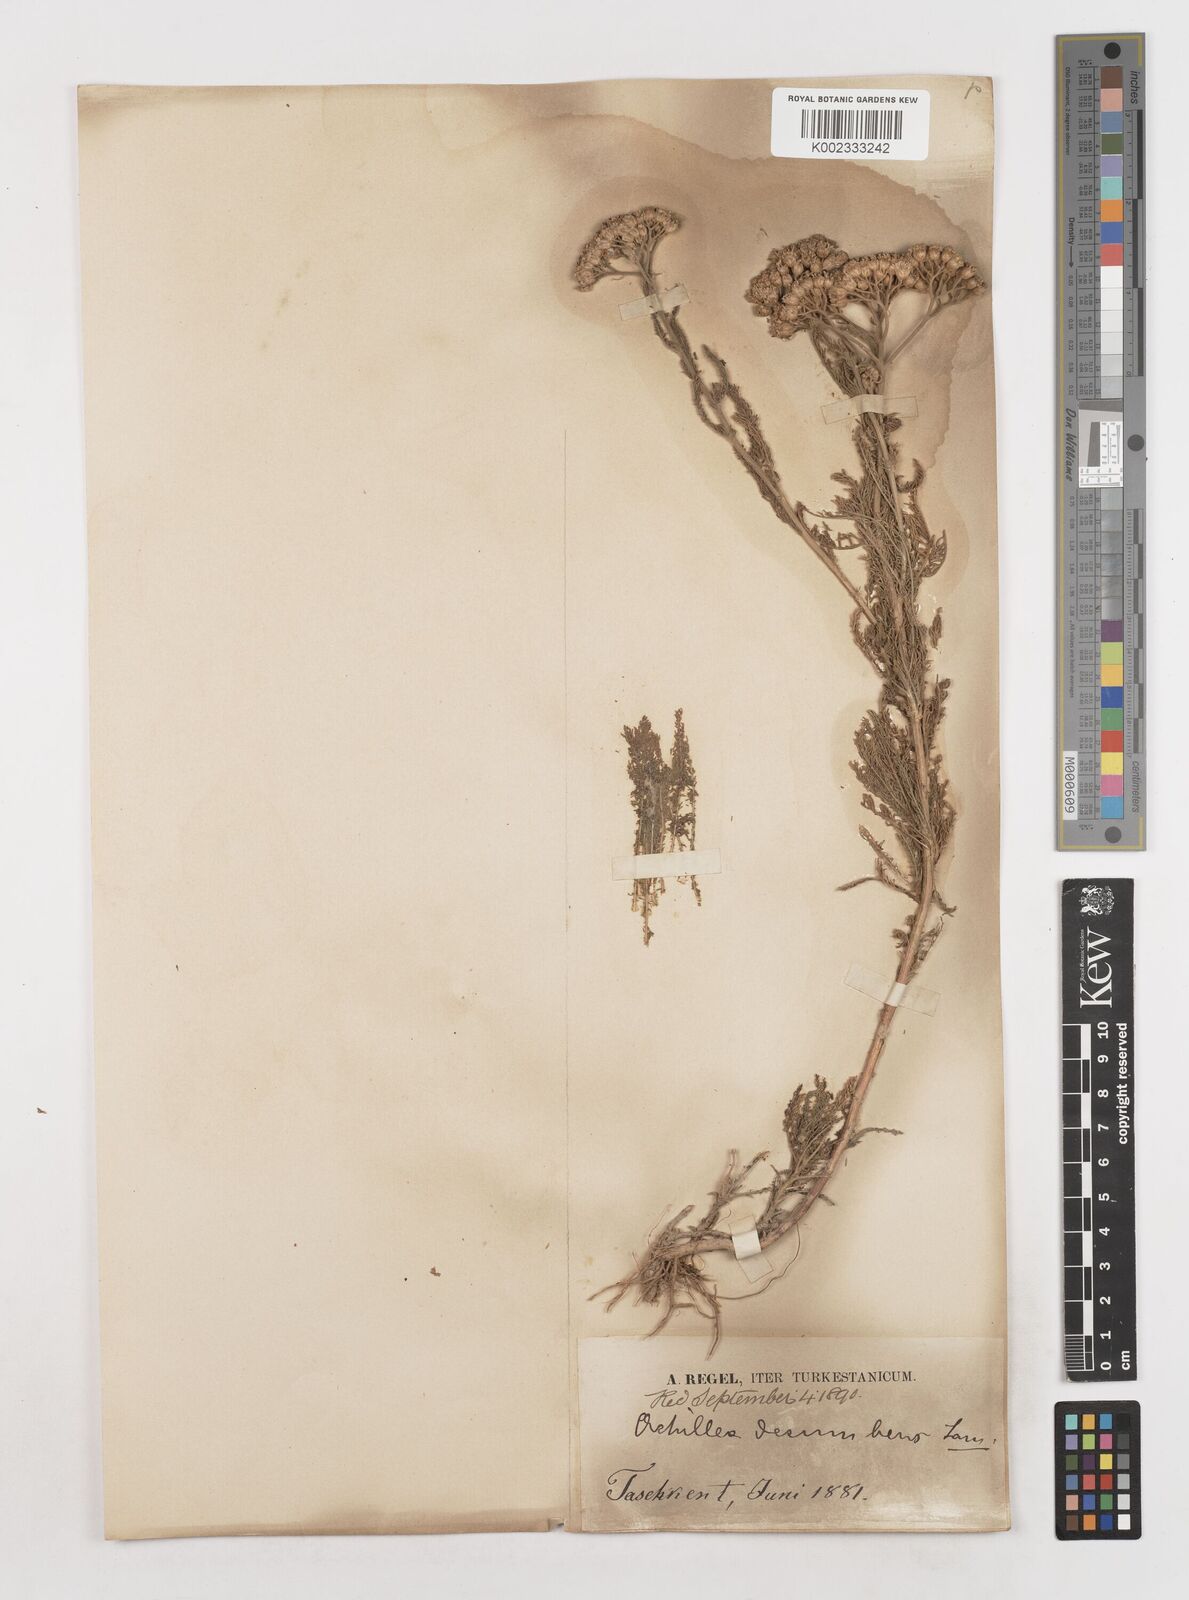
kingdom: Plantae
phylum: Tracheophyta
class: Magnoliopsida
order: Asterales
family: Asteraceae
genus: Achillea
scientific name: Achillea micrantha
